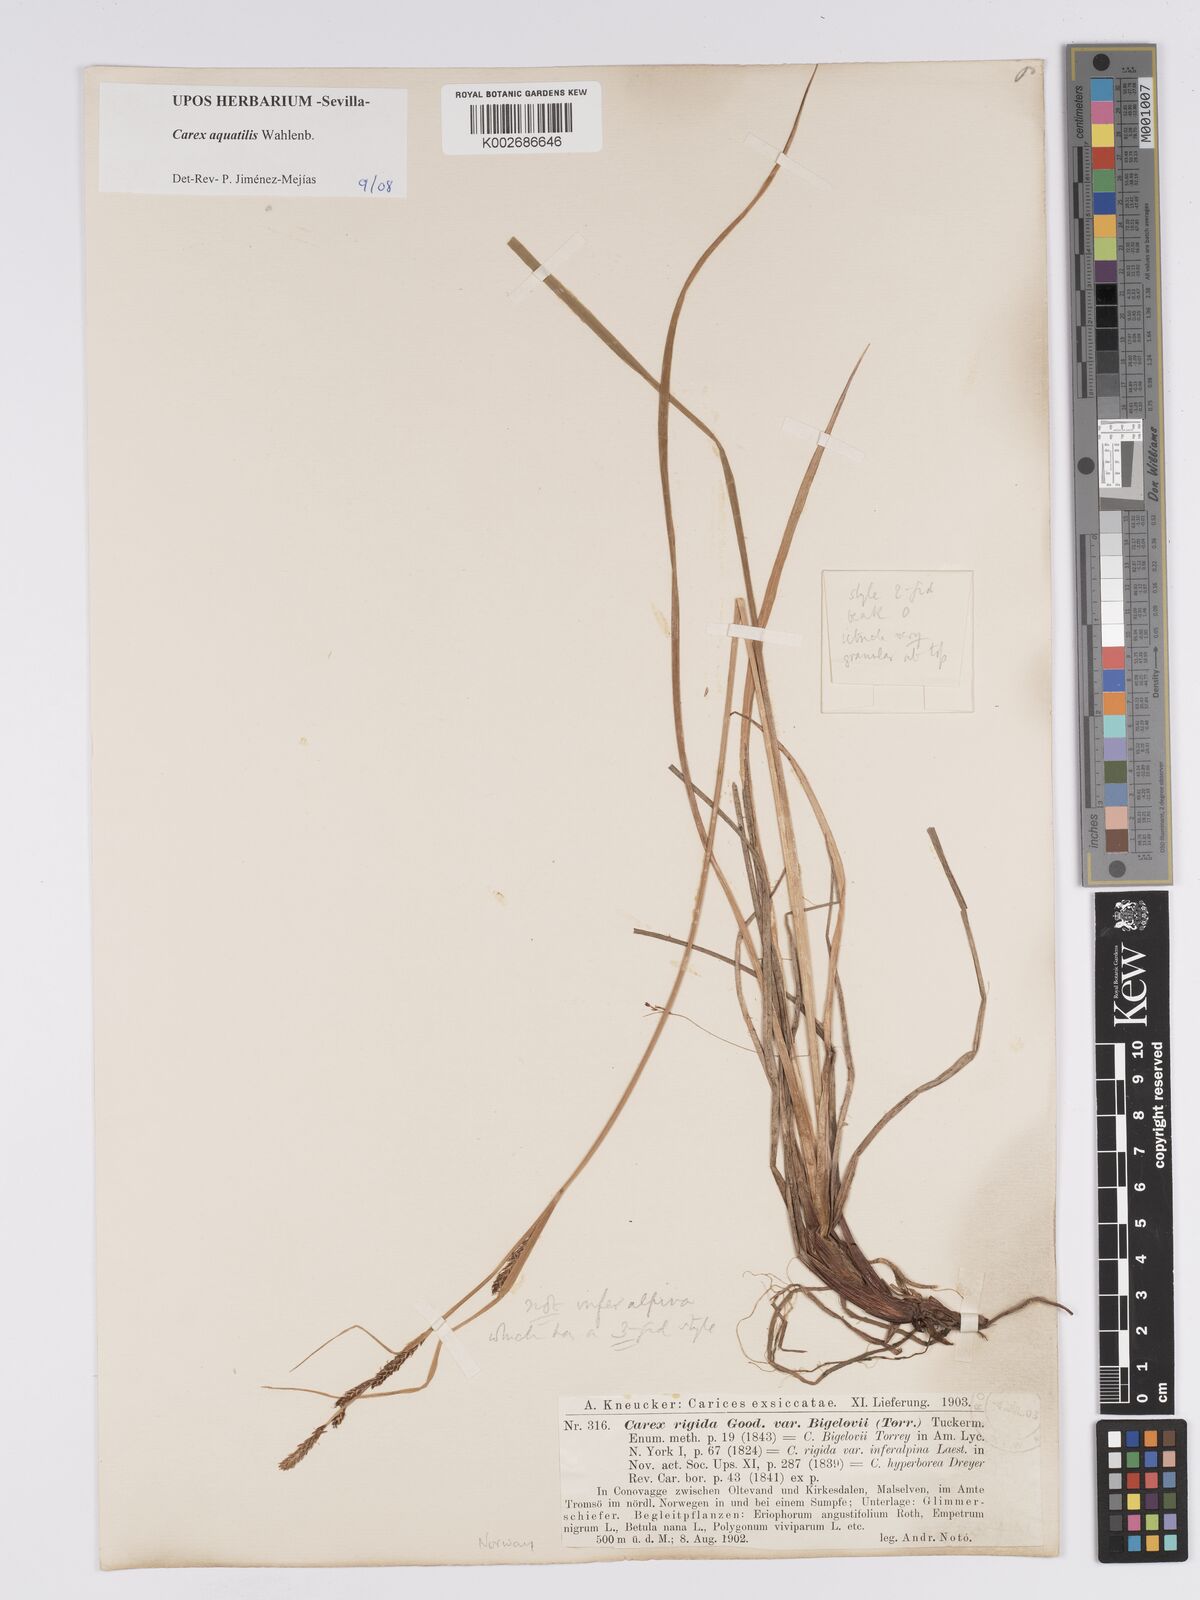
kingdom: Plantae
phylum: Tracheophyta
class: Liliopsida
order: Poales
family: Cyperaceae
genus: Carex
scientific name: Carex aquatilis
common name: Water sedge
